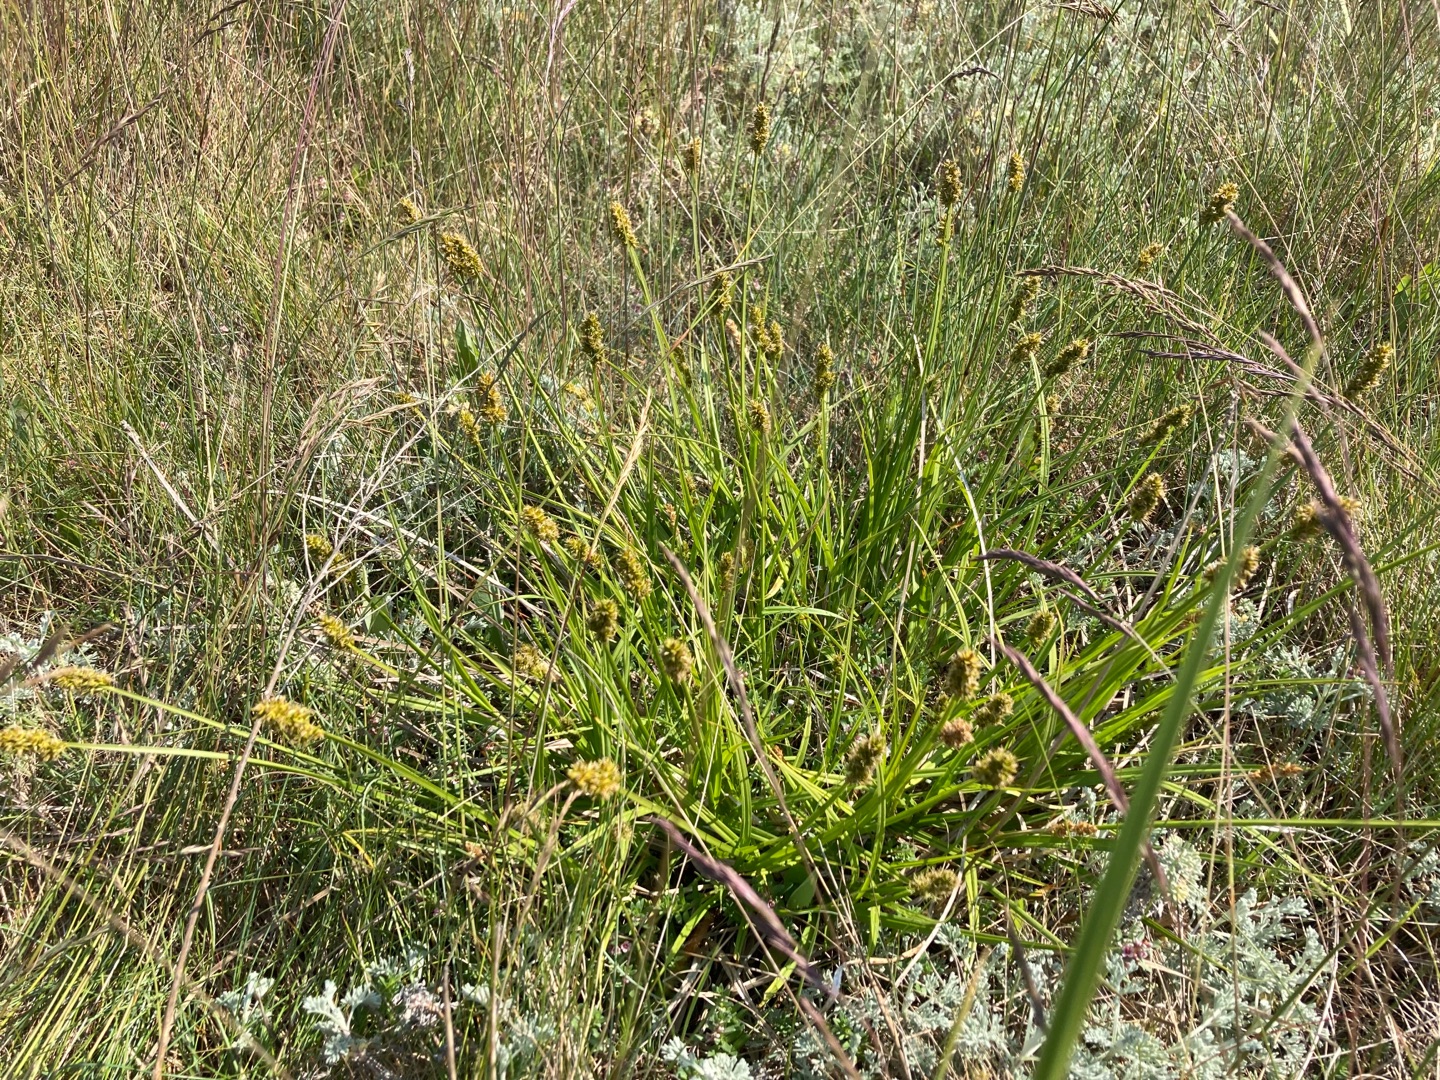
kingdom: Plantae
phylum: Tracheophyta
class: Liliopsida
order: Poales
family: Cyperaceae
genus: Carex
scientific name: Carex otrubae
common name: Sylt-star
